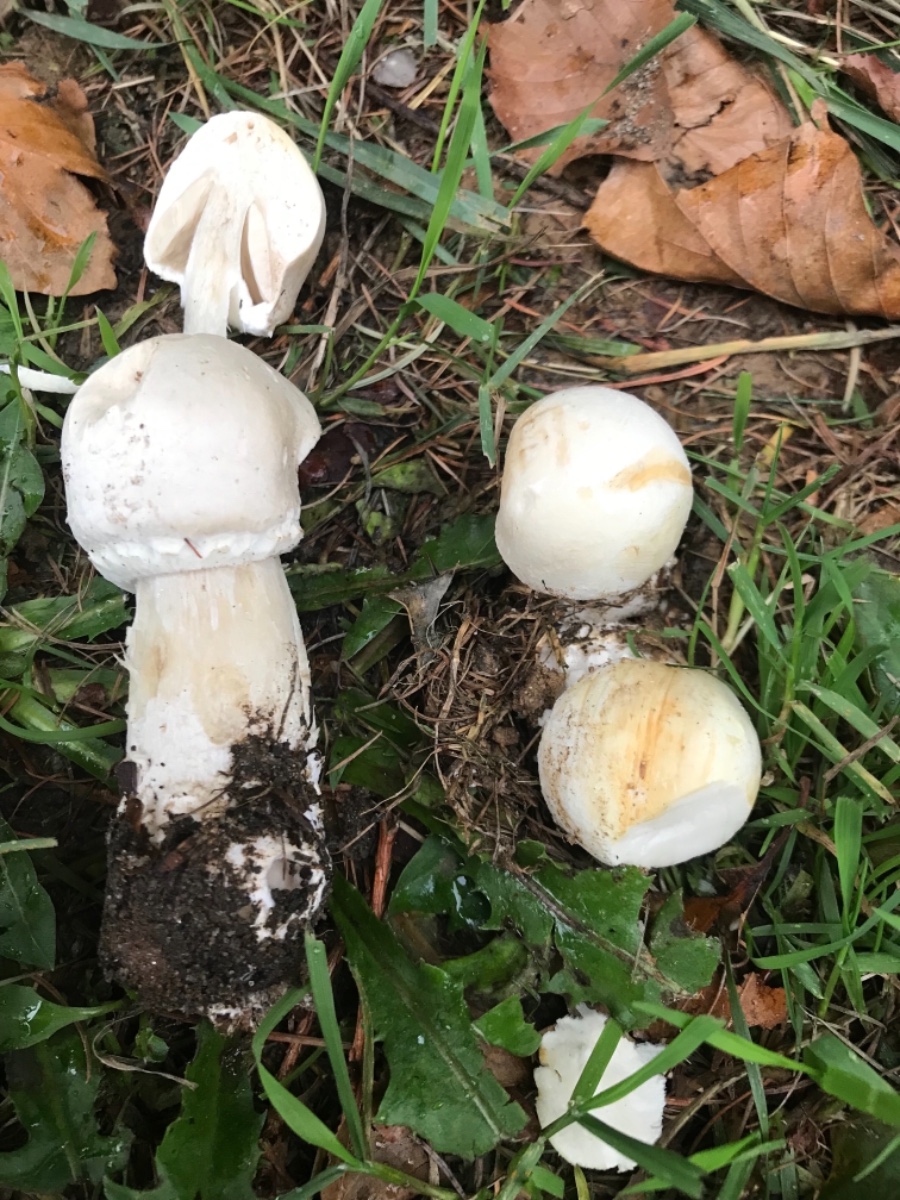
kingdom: Fungi
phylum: Basidiomycota
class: Agaricomycetes
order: Agaricales
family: Agaricaceae
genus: Agaricus
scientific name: Agaricus arvensis
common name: ager-champignon
